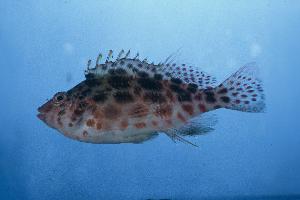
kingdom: Animalia
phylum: Chordata
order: Perciformes
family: Cirrhitidae
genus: Cirrhitichthys
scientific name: Cirrhitichthys oxycephalus
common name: Spotted hawkfish
